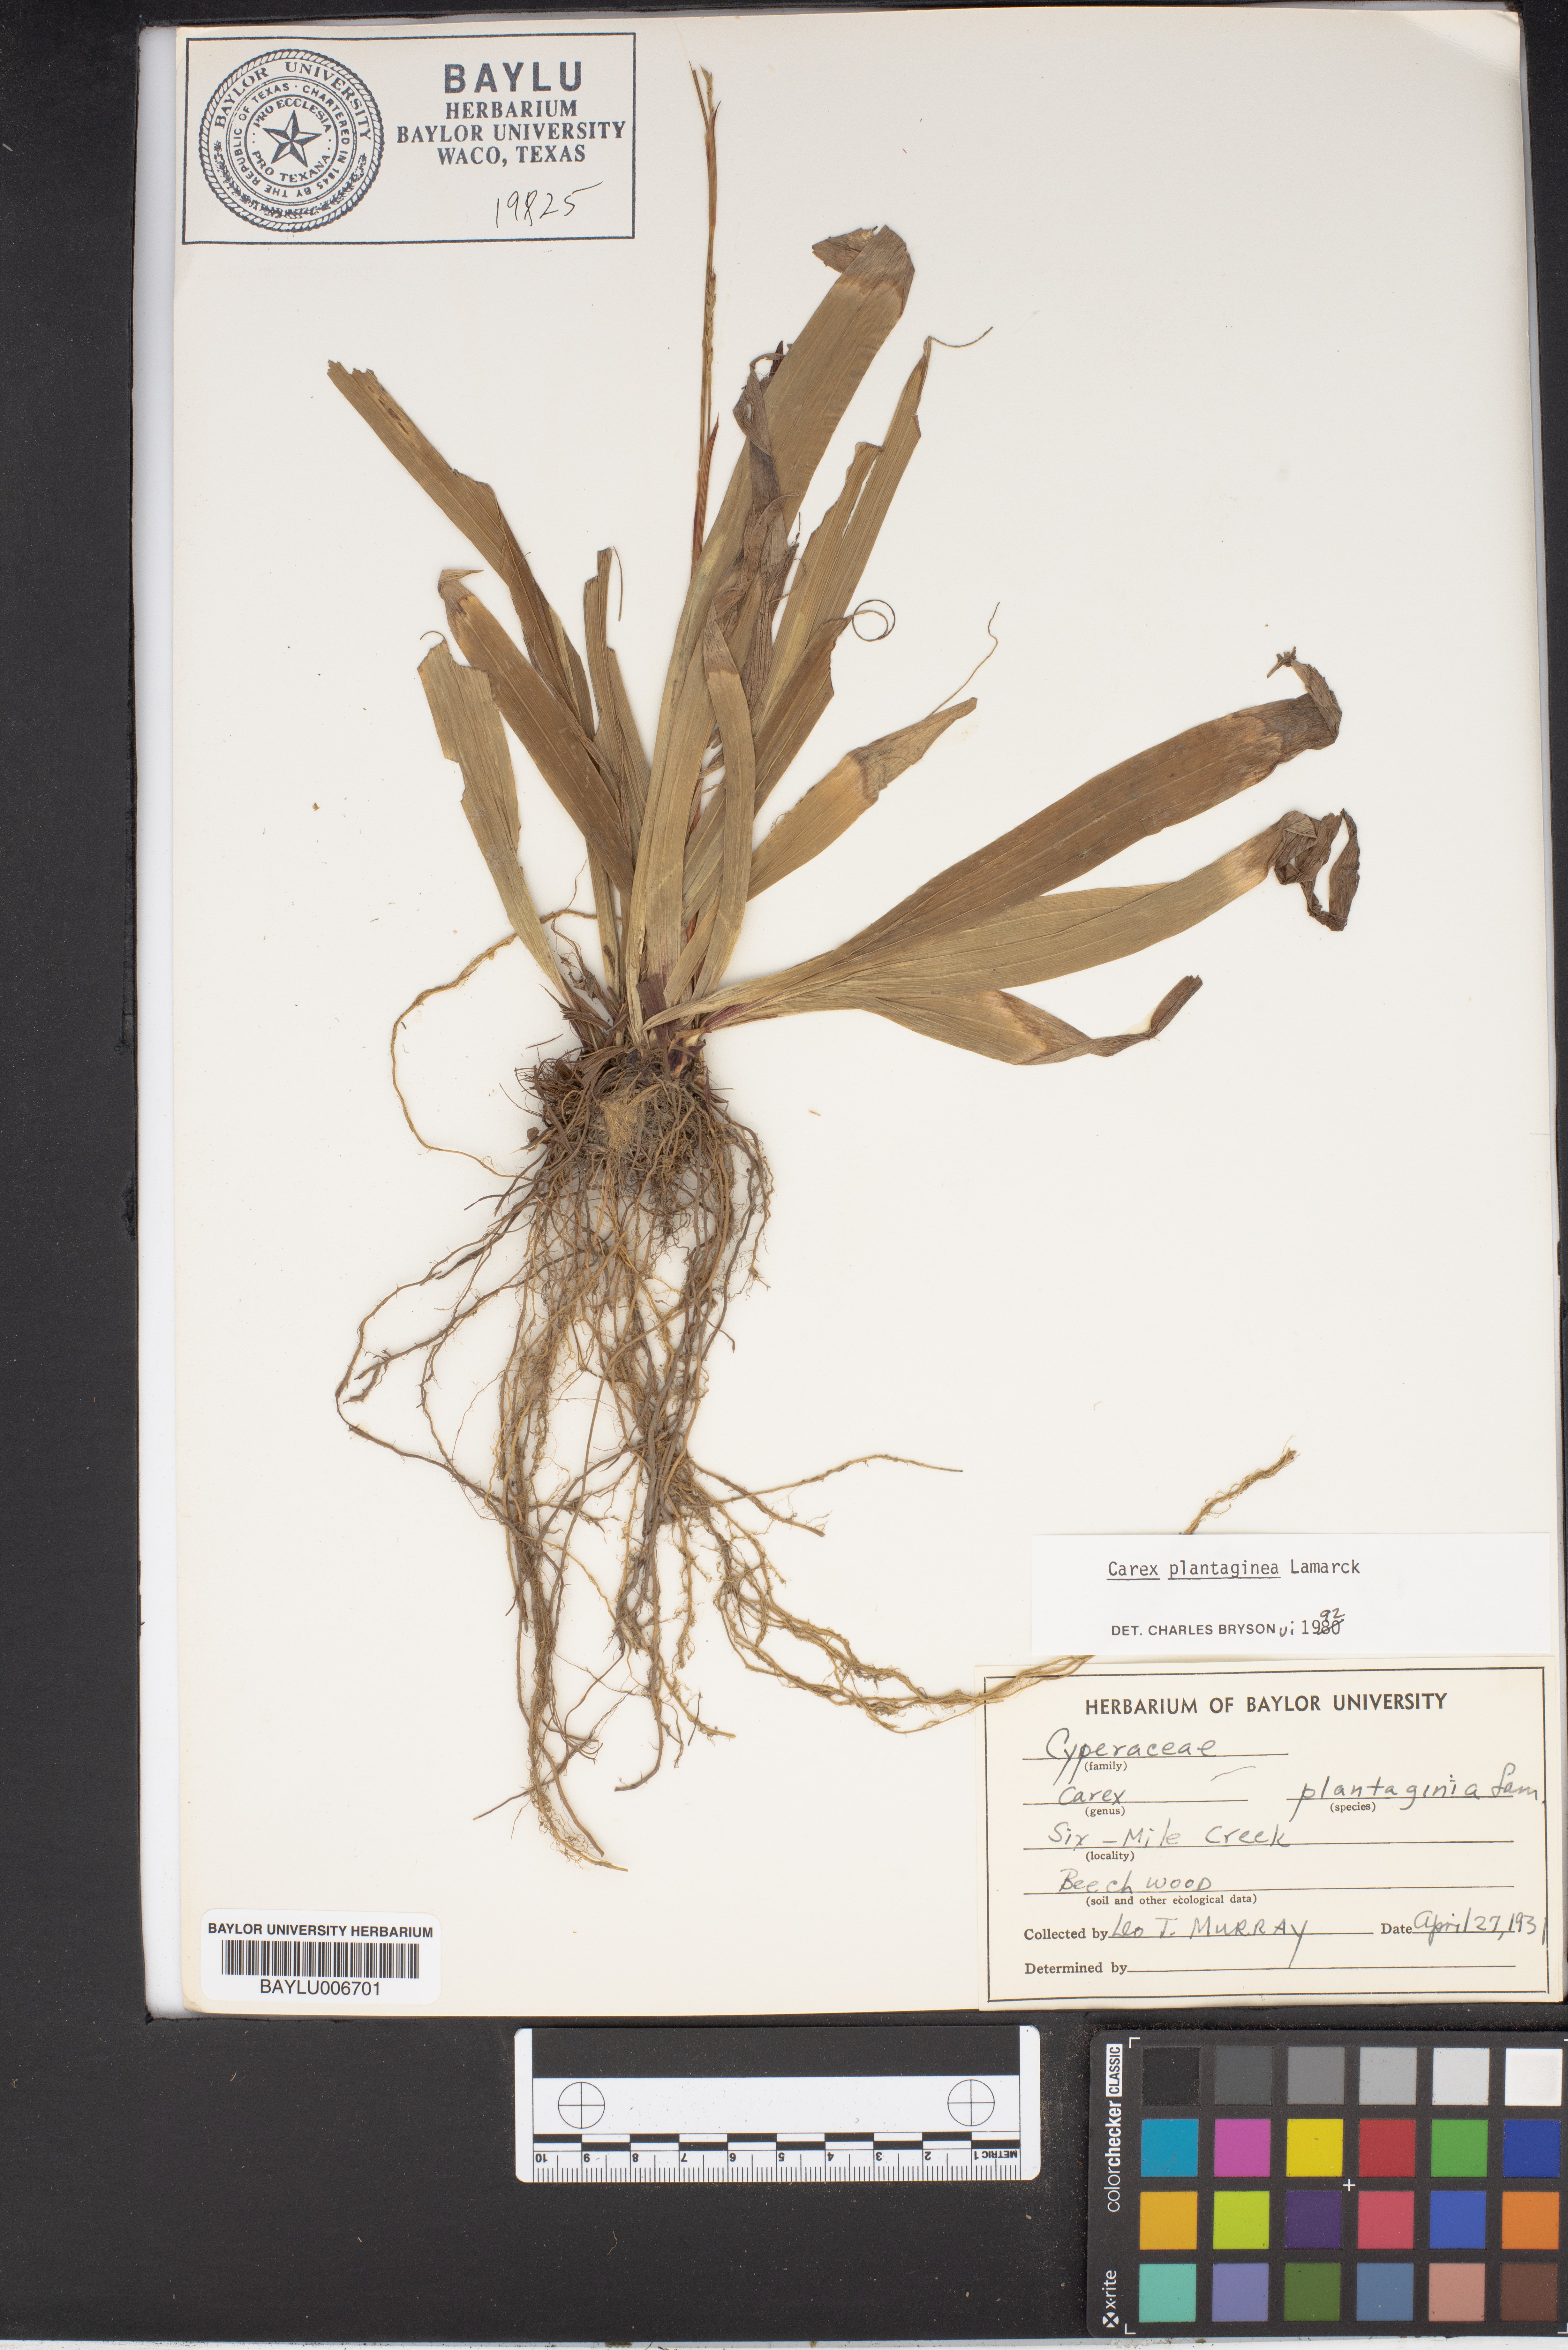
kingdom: Plantae
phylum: Tracheophyta
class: Liliopsida
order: Poales
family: Cyperaceae
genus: Carex
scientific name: Carex plantaginea
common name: Plantain-leaved sedge
